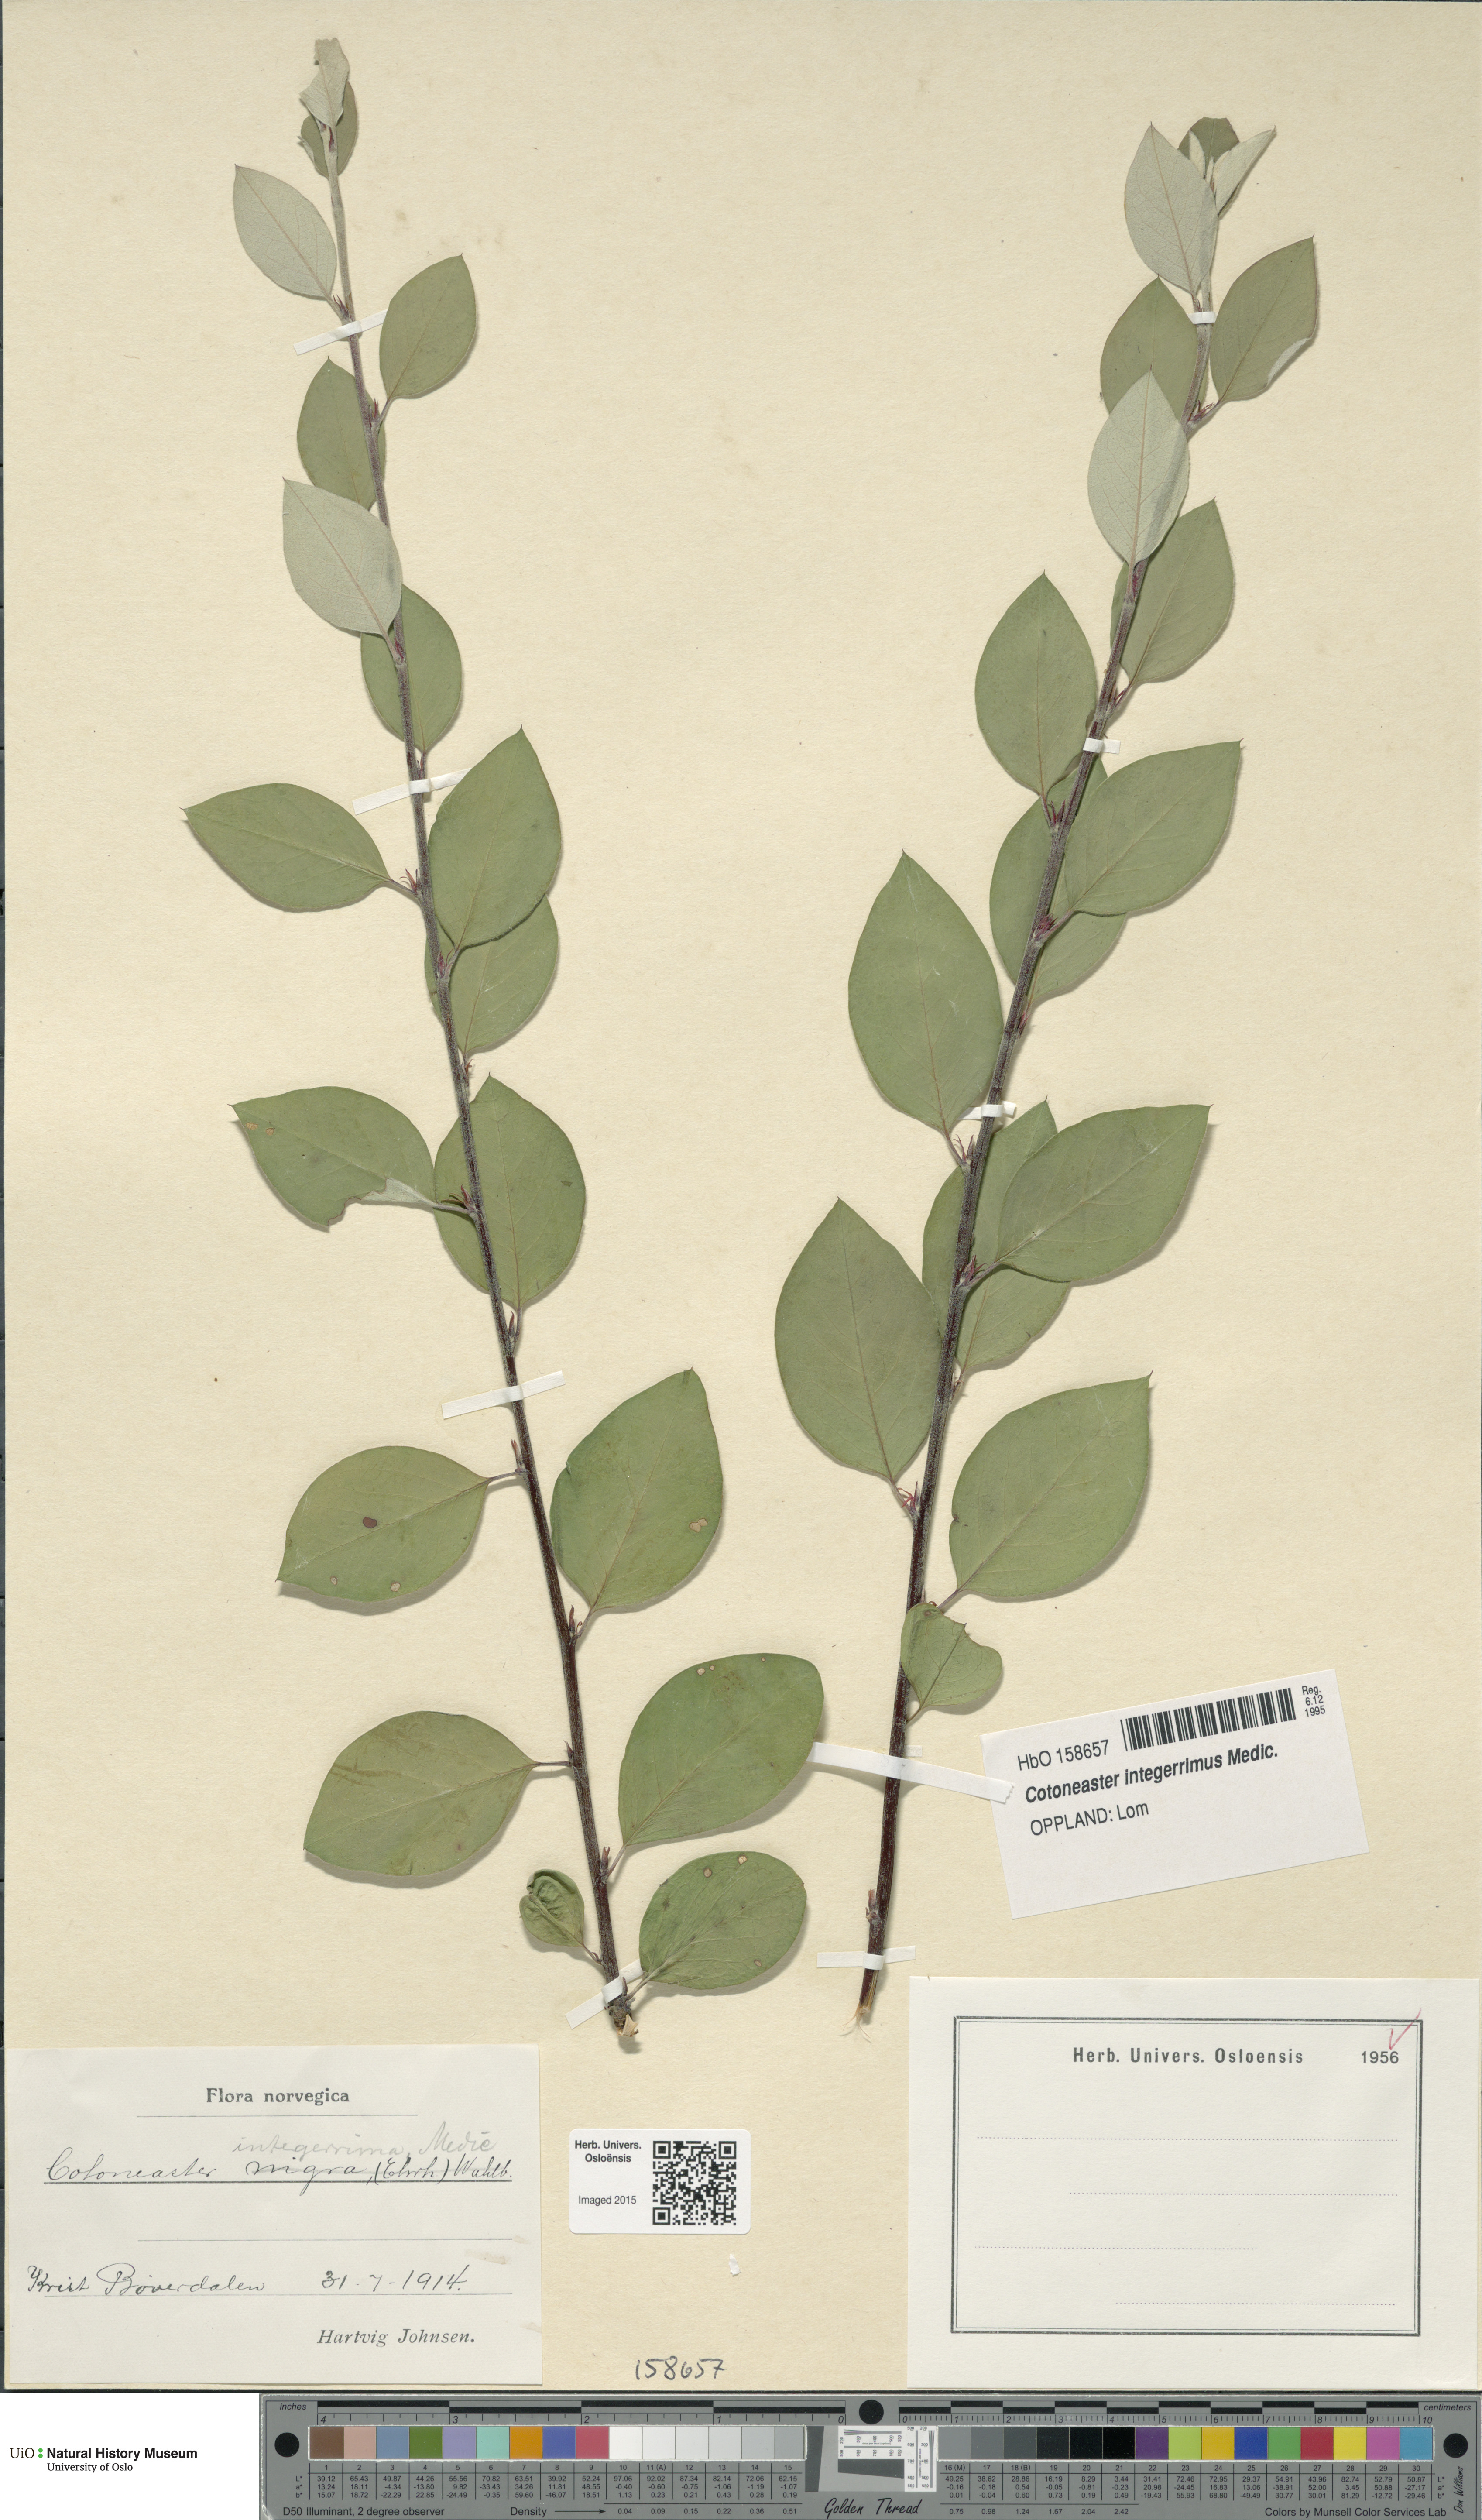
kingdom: Plantae
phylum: Tracheophyta
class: Magnoliopsida
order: Rosales
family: Rosaceae
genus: Cotoneaster
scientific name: Cotoneaster integerrimus
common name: Wild cotoneaster
